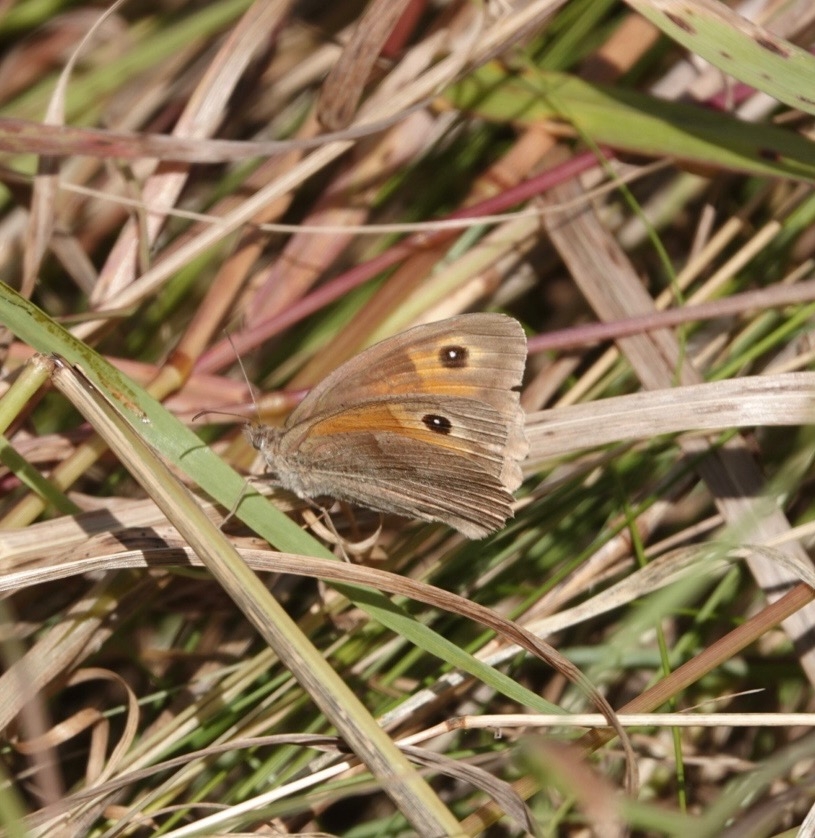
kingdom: Animalia
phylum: Arthropoda
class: Insecta
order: Lepidoptera
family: Nymphalidae
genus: Maniola
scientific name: Maniola jurtina
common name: Græsrandøje
